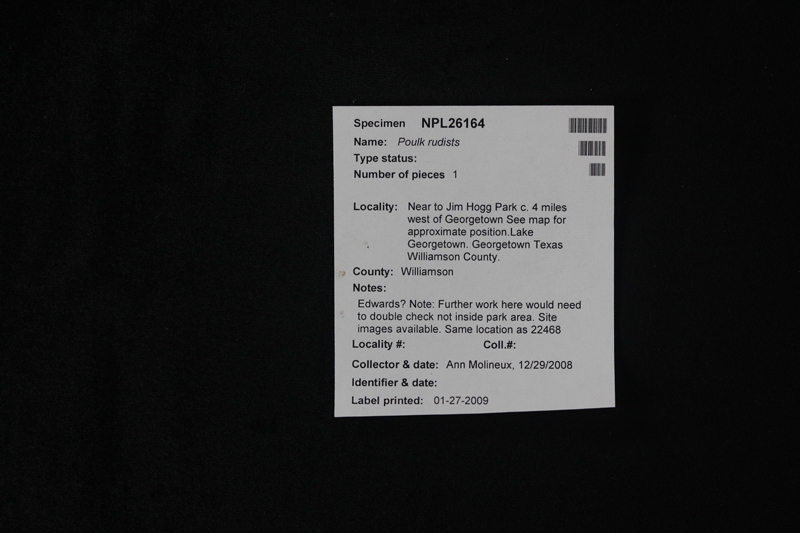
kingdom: Animalia
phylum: Mollusca
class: Bivalvia
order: Hippuritida
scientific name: Hippuritida
